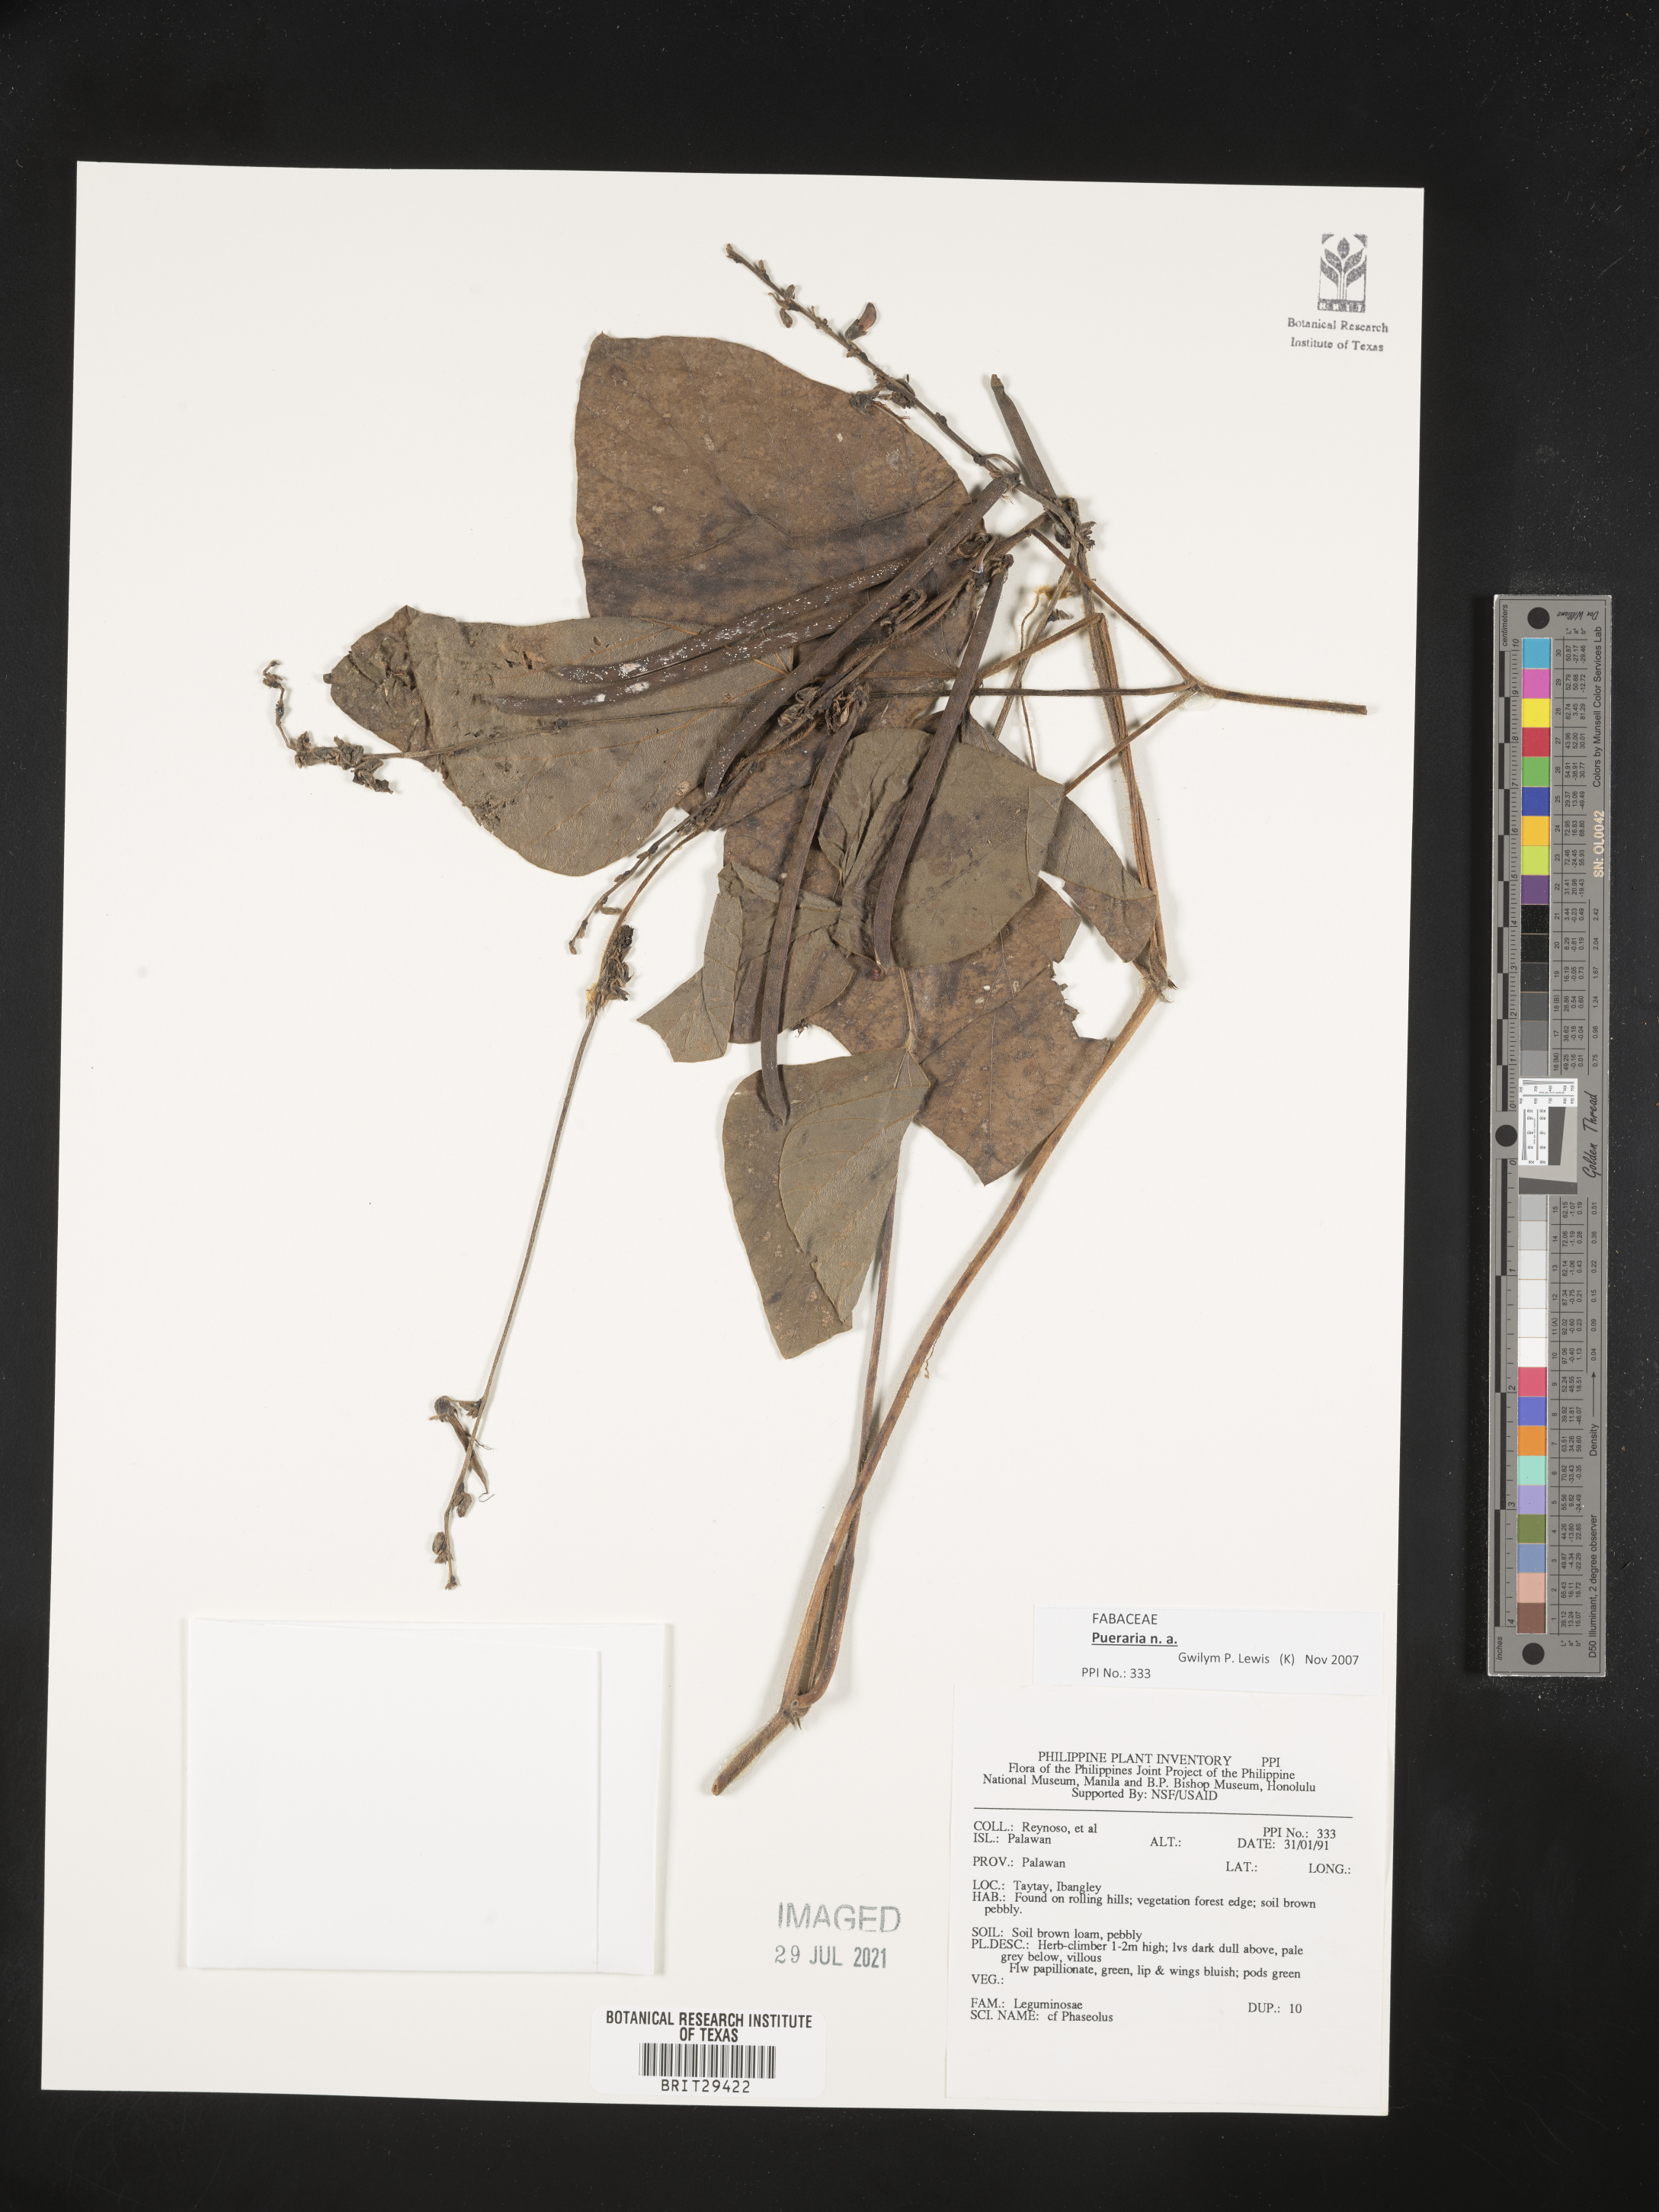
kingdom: Plantae
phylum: Tracheophyta
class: Magnoliopsida
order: Fabales
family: Fabaceae
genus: Pueraria
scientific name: Pueraria
